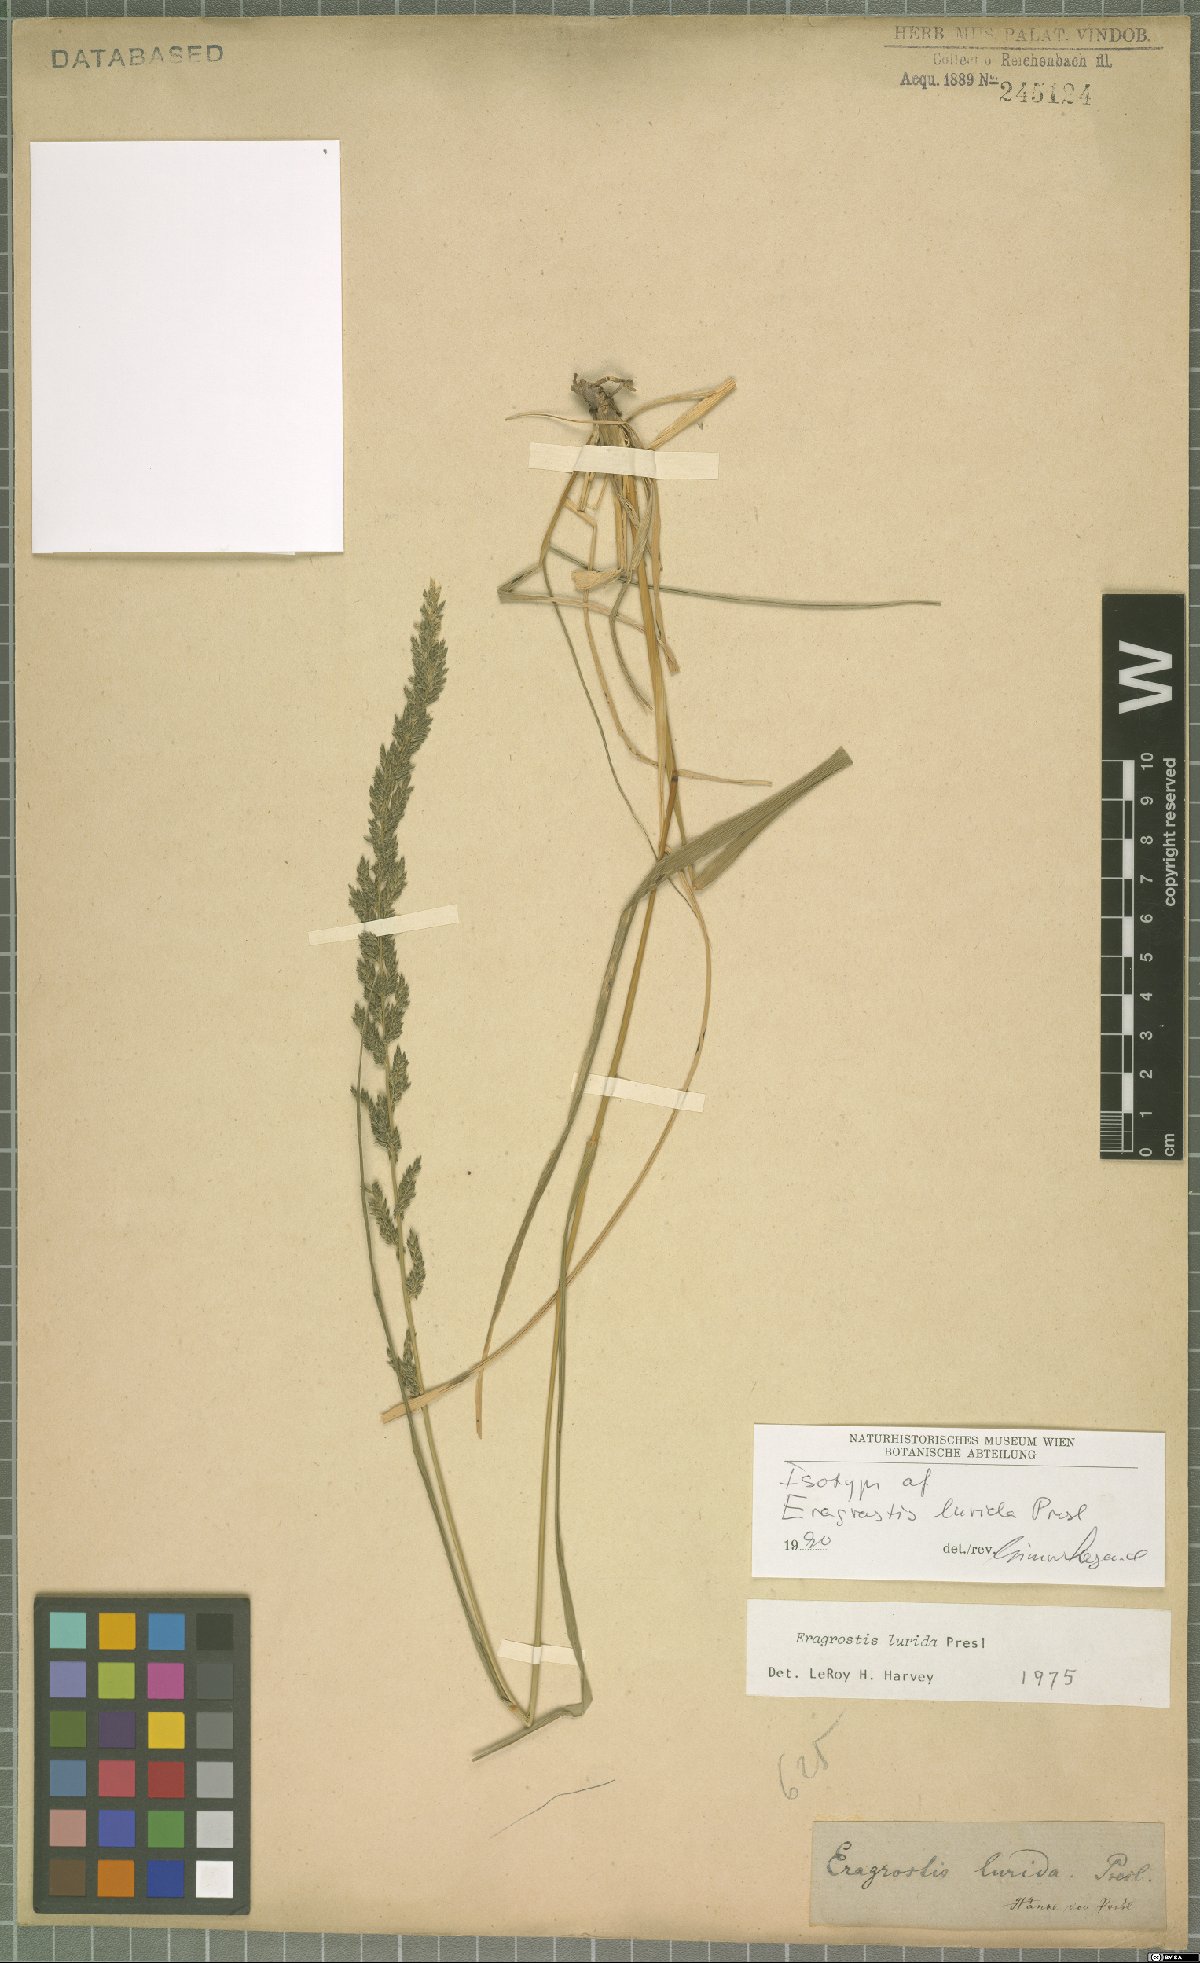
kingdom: Plantae
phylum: Tracheophyta
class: Liliopsida
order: Poales
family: Poaceae
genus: Eragrostis
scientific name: Eragrostis lurida
